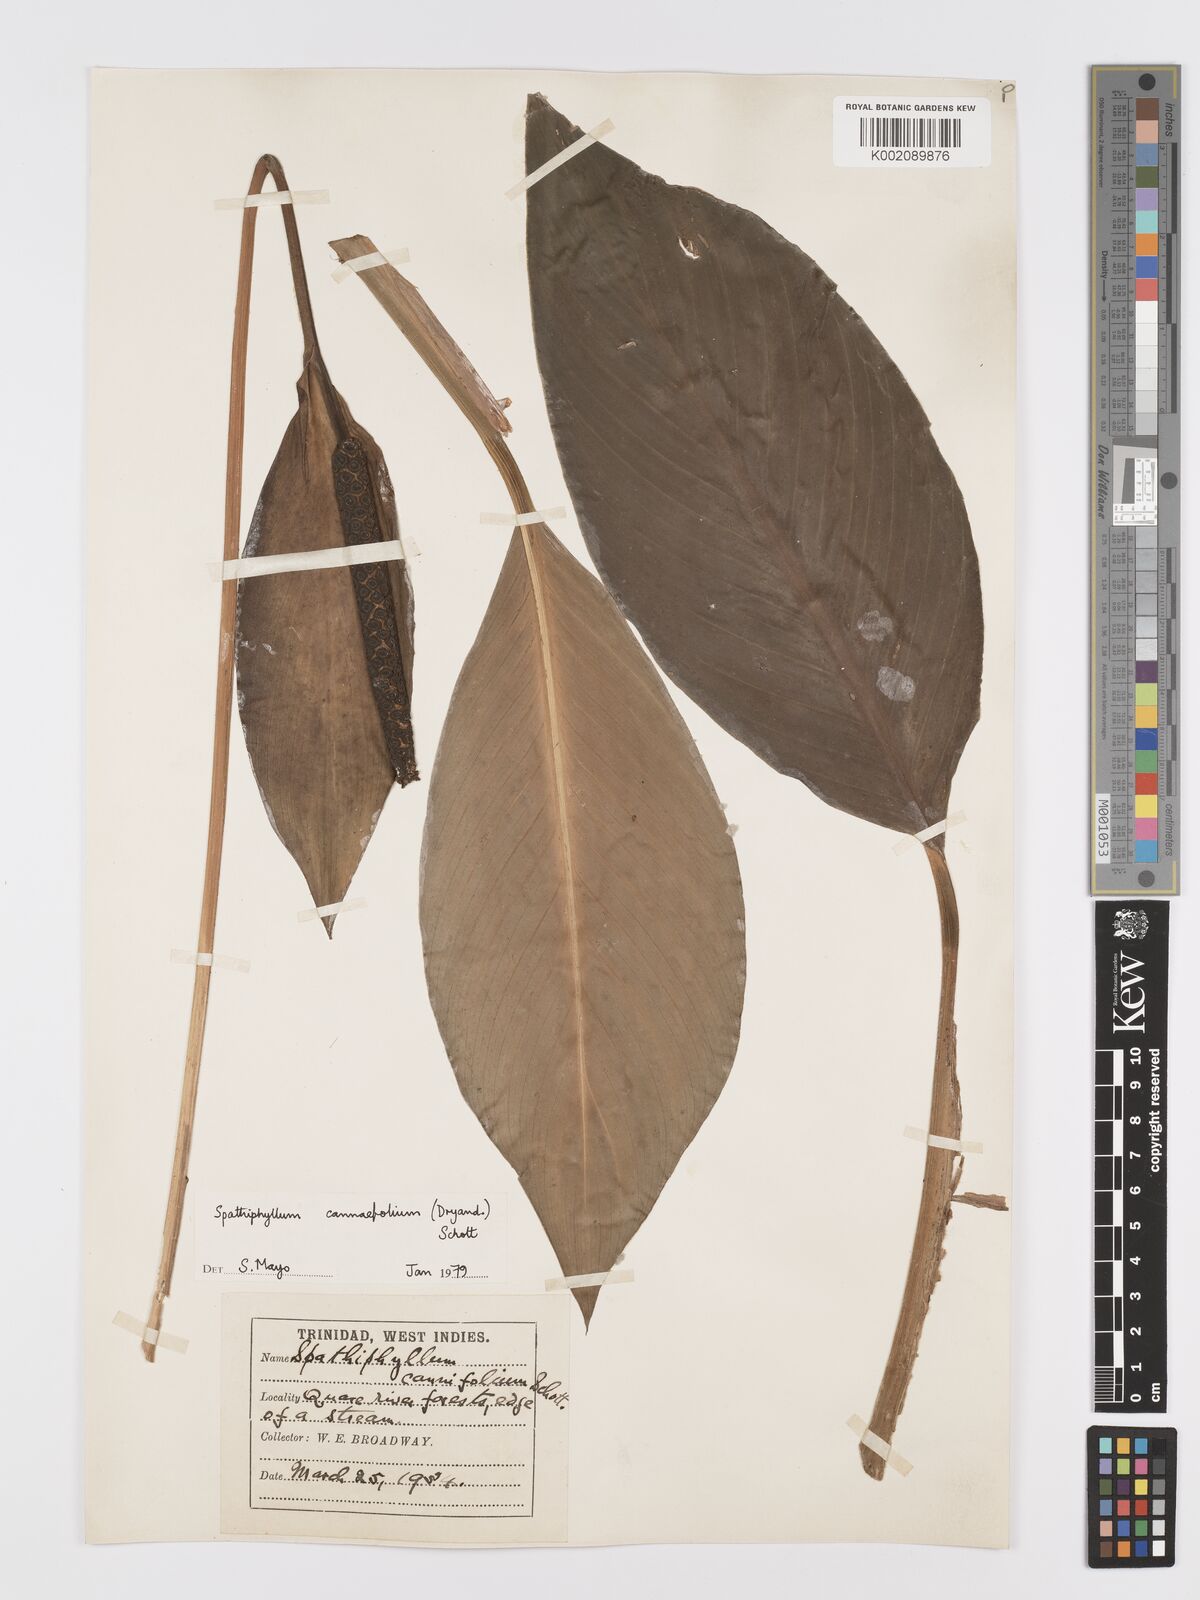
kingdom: Plantae
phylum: Tracheophyta
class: Liliopsida
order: Alismatales
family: Araceae
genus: Spathiphyllum
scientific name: Spathiphyllum cannifolium
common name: Spatheflower
